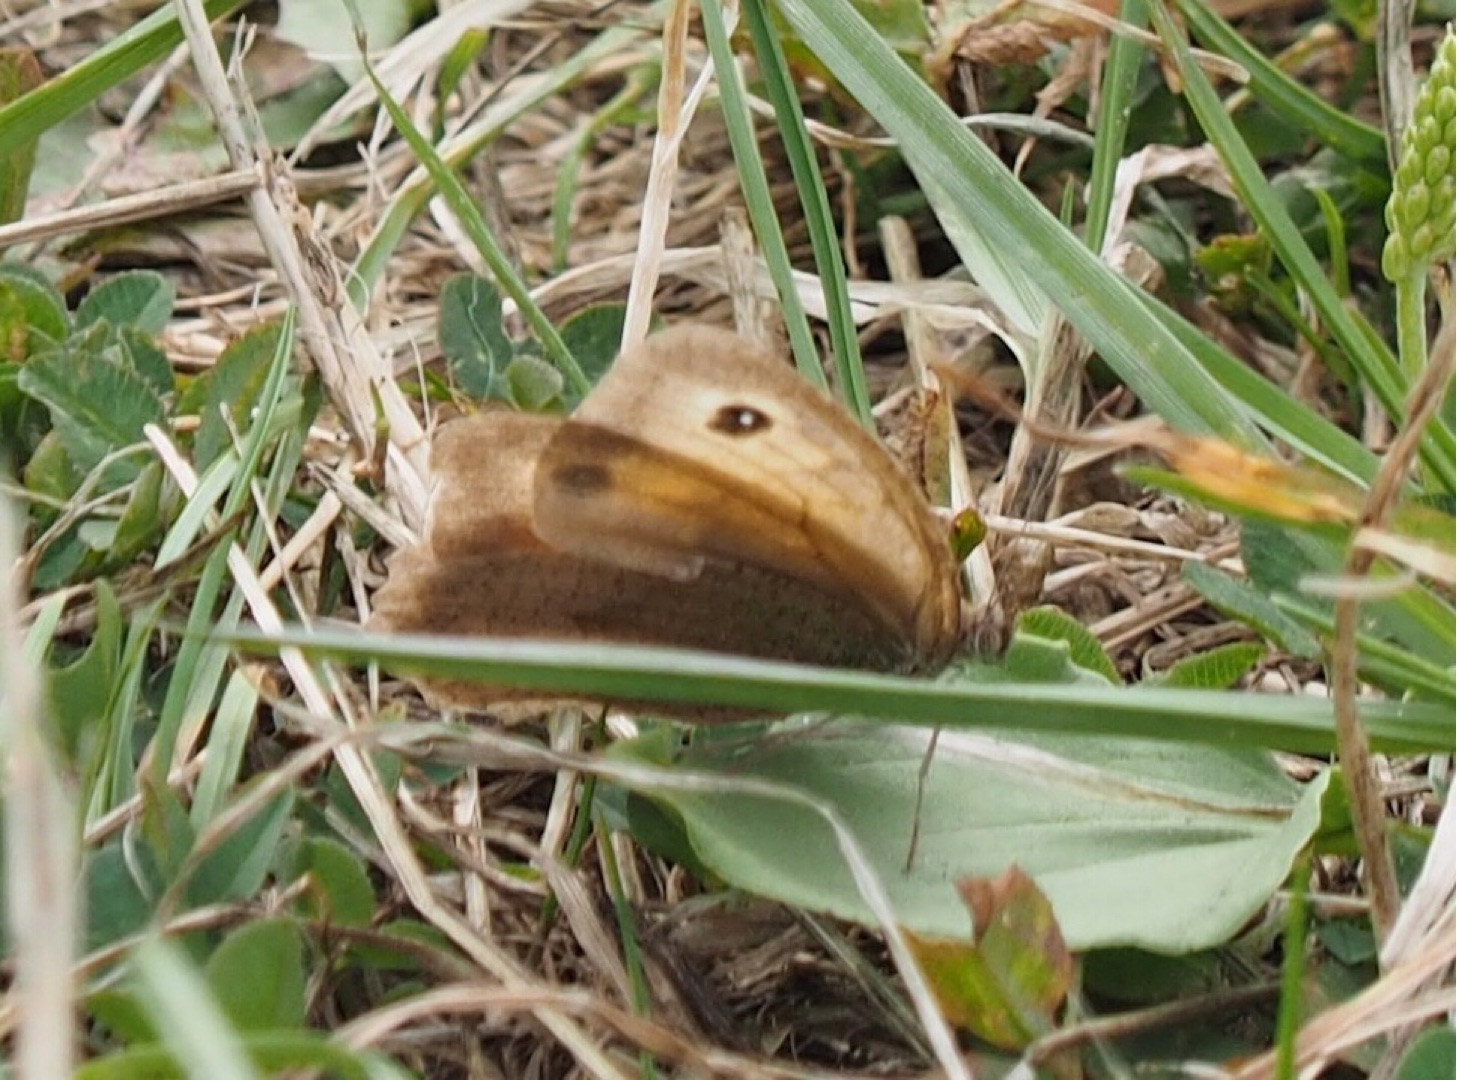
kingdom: Animalia
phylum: Arthropoda
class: Insecta
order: Lepidoptera
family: Nymphalidae
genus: Maniola
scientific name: Maniola jurtina
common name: Græsrandøje
